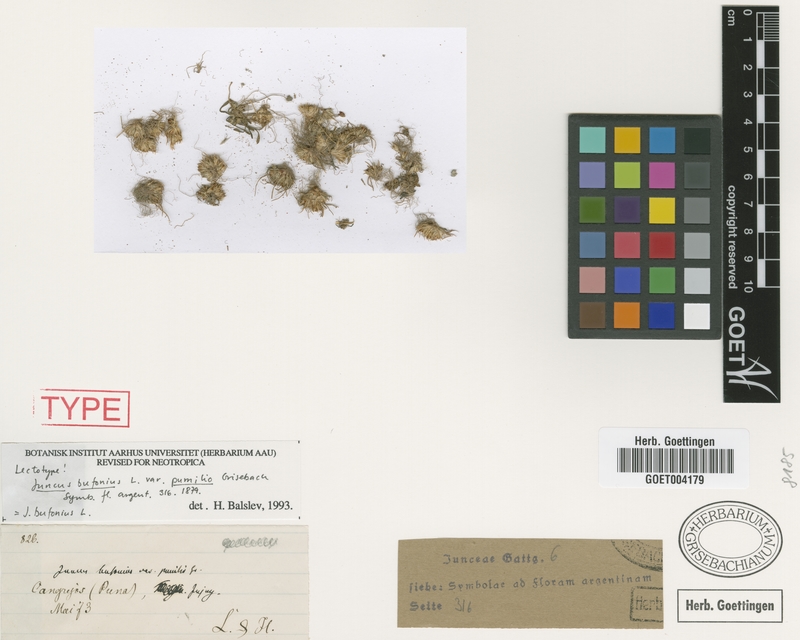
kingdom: Plantae
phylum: Tracheophyta
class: Liliopsida
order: Poales
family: Juncaceae
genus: Juncus
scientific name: Juncus bufonius
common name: Toad rush
